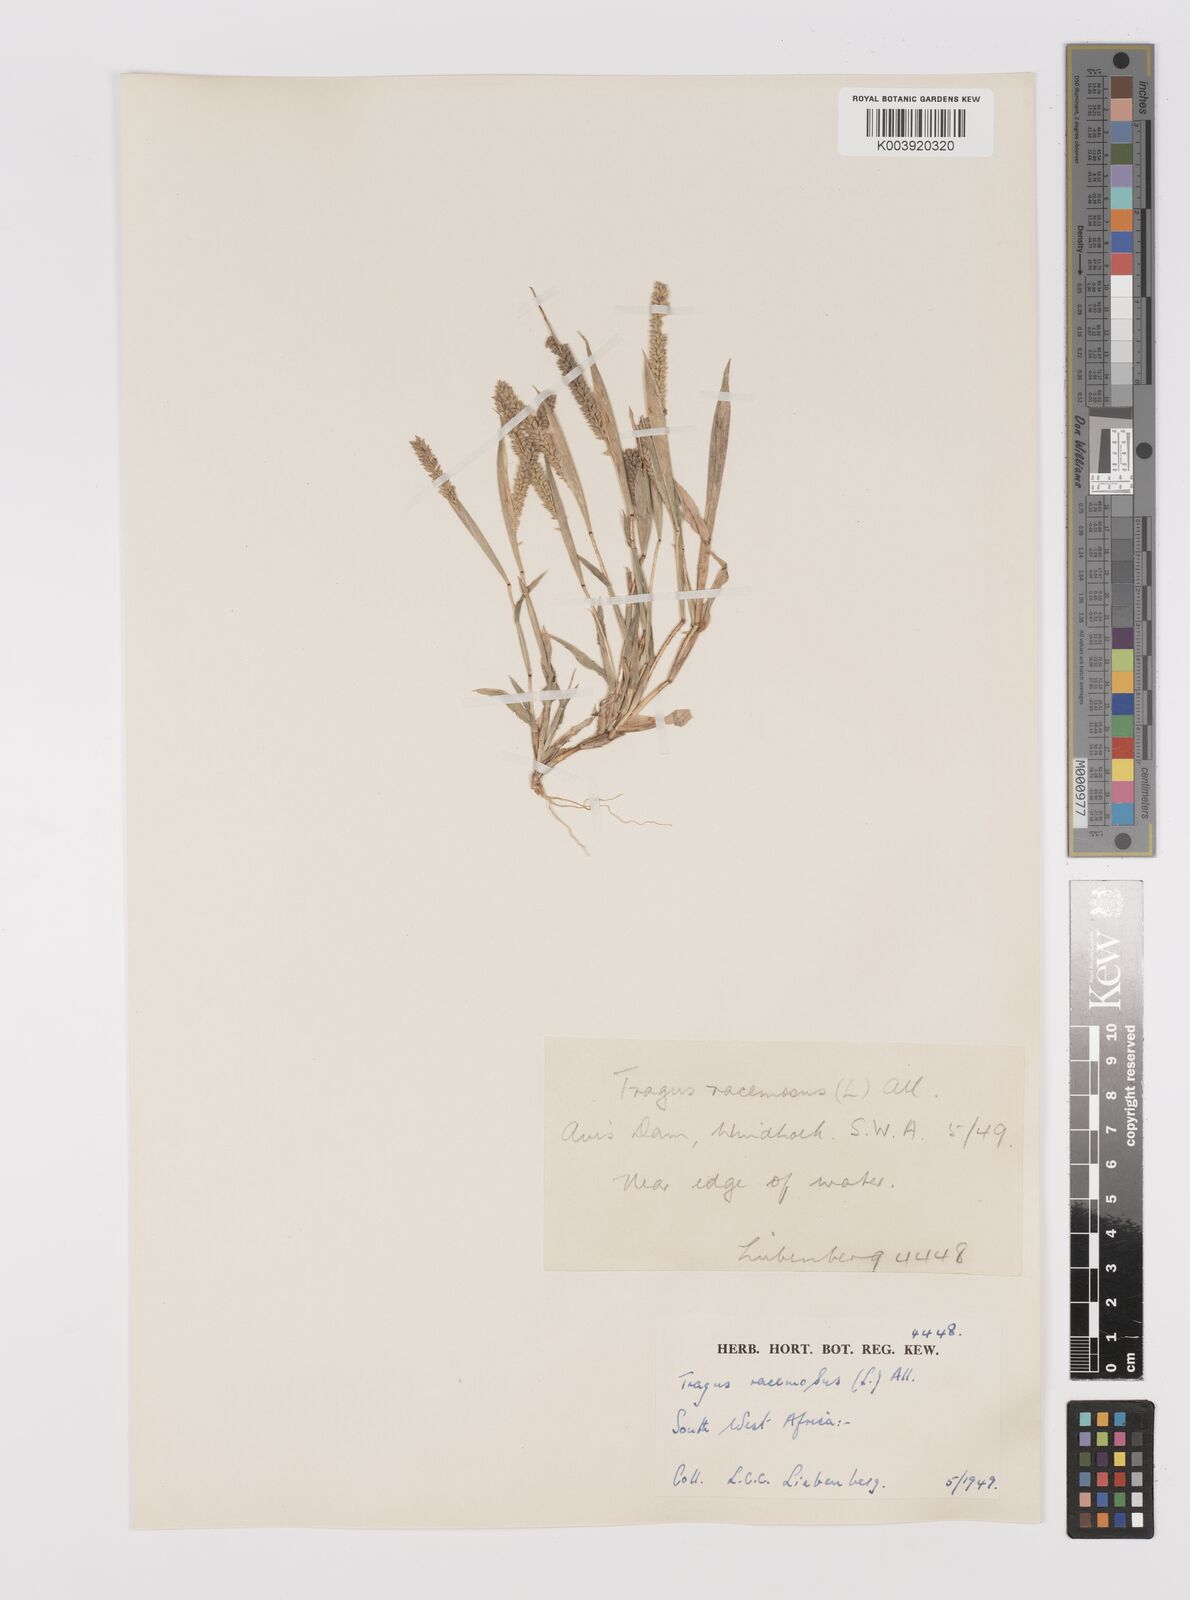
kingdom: Plantae
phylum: Tracheophyta
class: Liliopsida
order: Poales
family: Poaceae
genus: Tragus
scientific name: Tragus berteronianus
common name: African bur-grass
